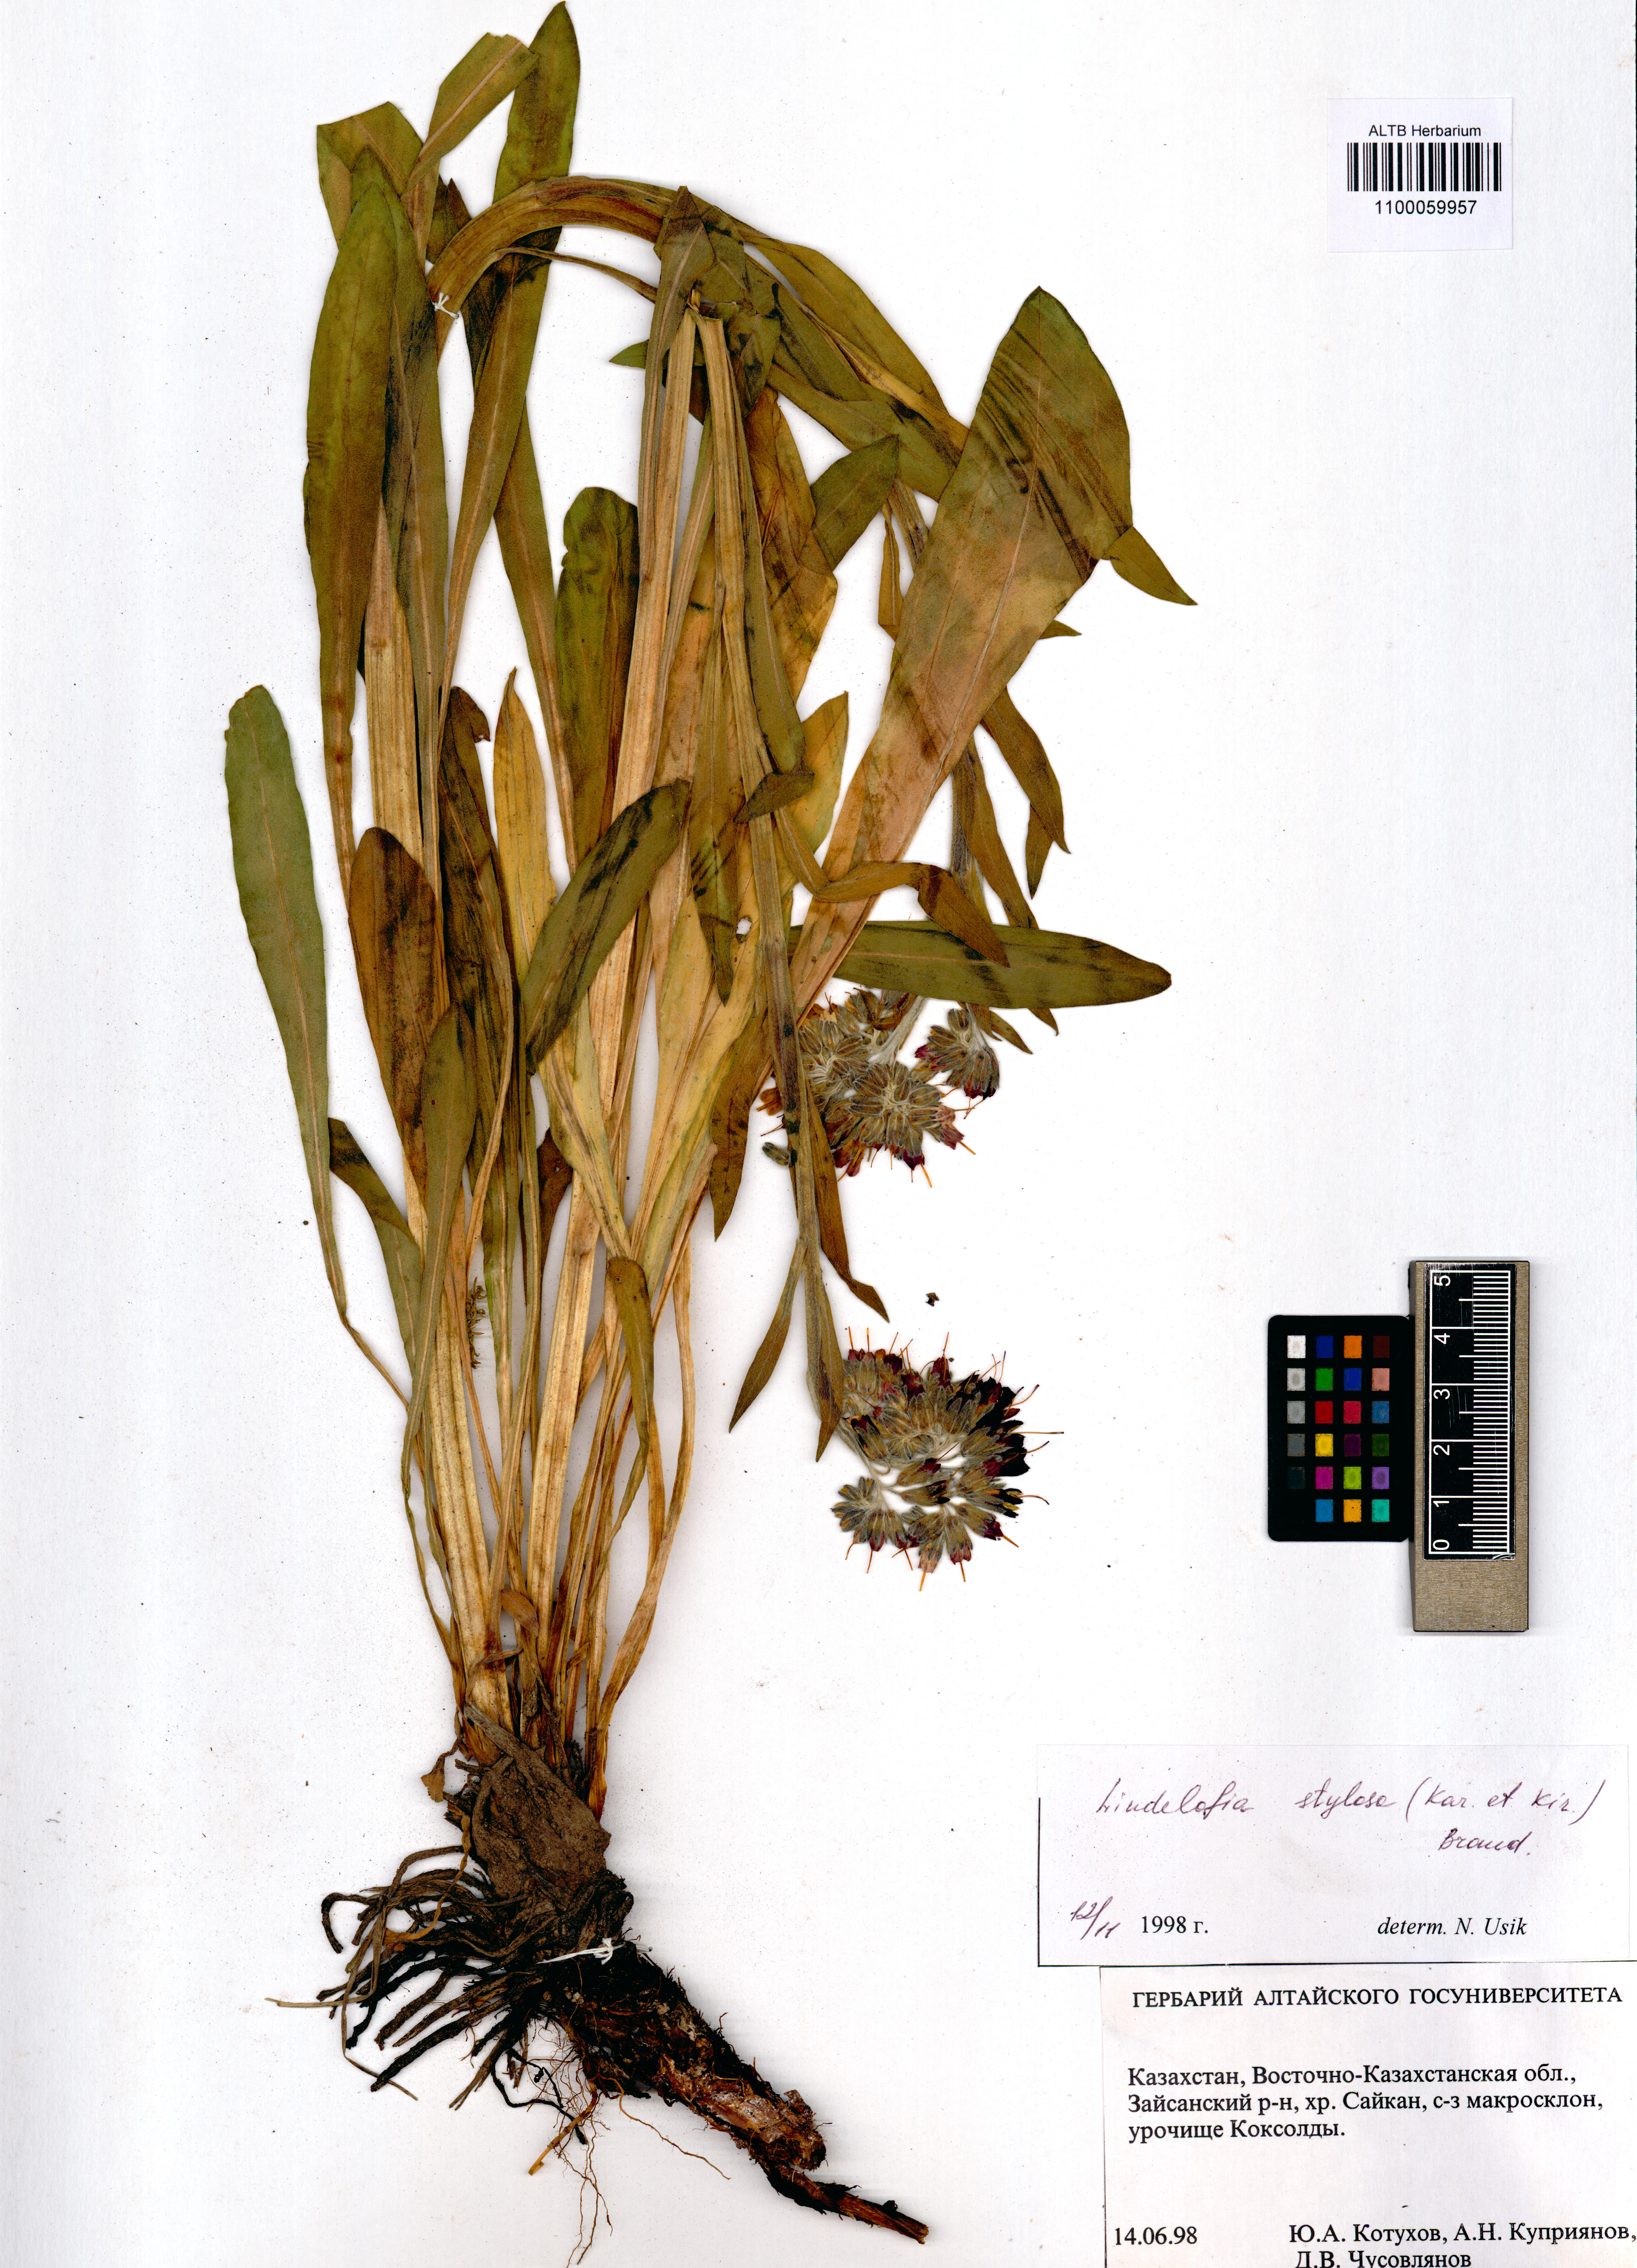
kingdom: Plantae
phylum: Tracheophyta
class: Magnoliopsida
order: Boraginales
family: Boraginaceae
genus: Lindelofia
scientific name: Lindelofia stylosa
